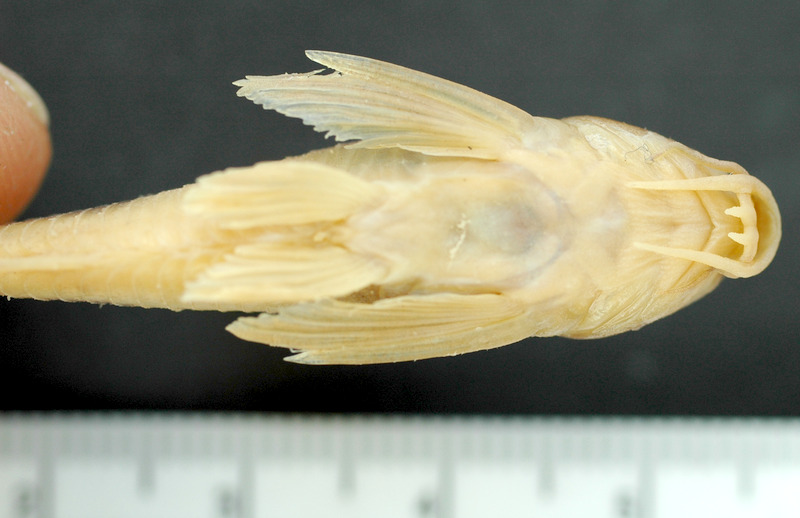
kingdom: Animalia
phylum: Chordata
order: Cypriniformes
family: Cyprinidae
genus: Alburnus
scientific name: Alburnus escherichii
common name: Sakarya bleak
